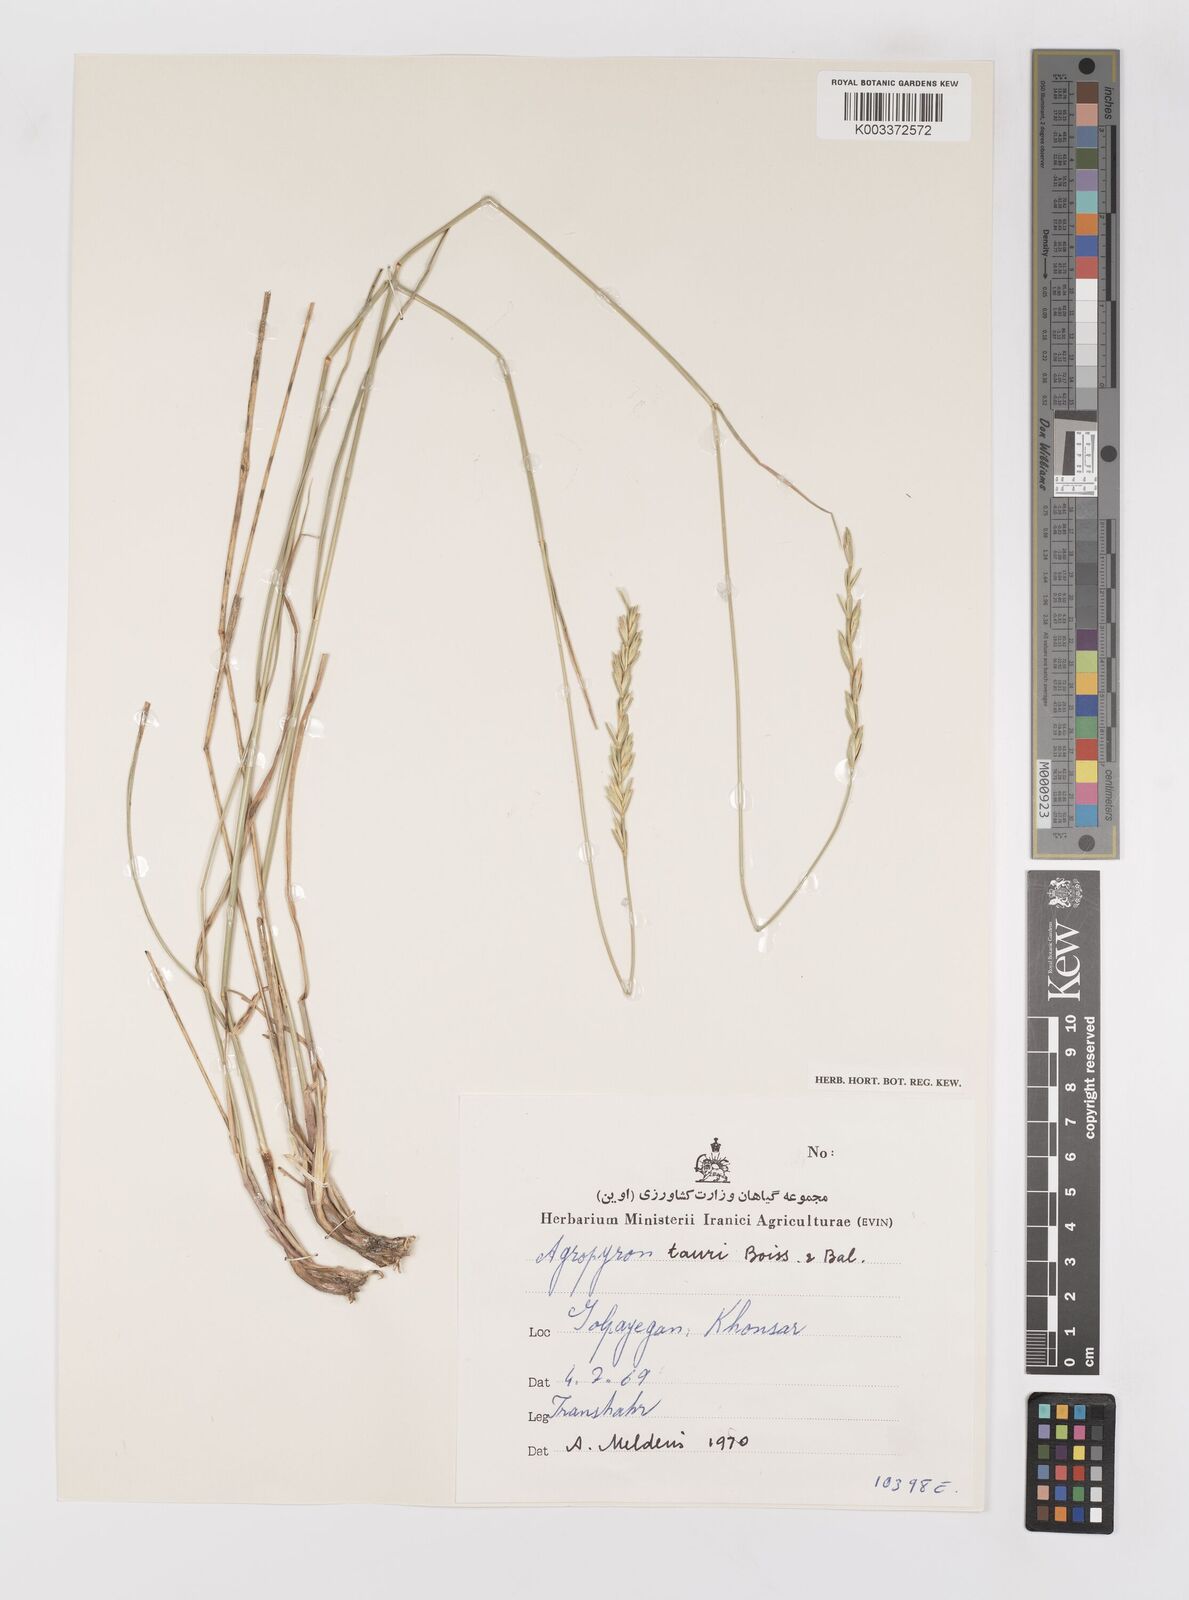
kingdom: Plantae
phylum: Tracheophyta
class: Liliopsida
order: Poales
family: Poaceae
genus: Pseudoroegneria
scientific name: Pseudoroegneria tauri
